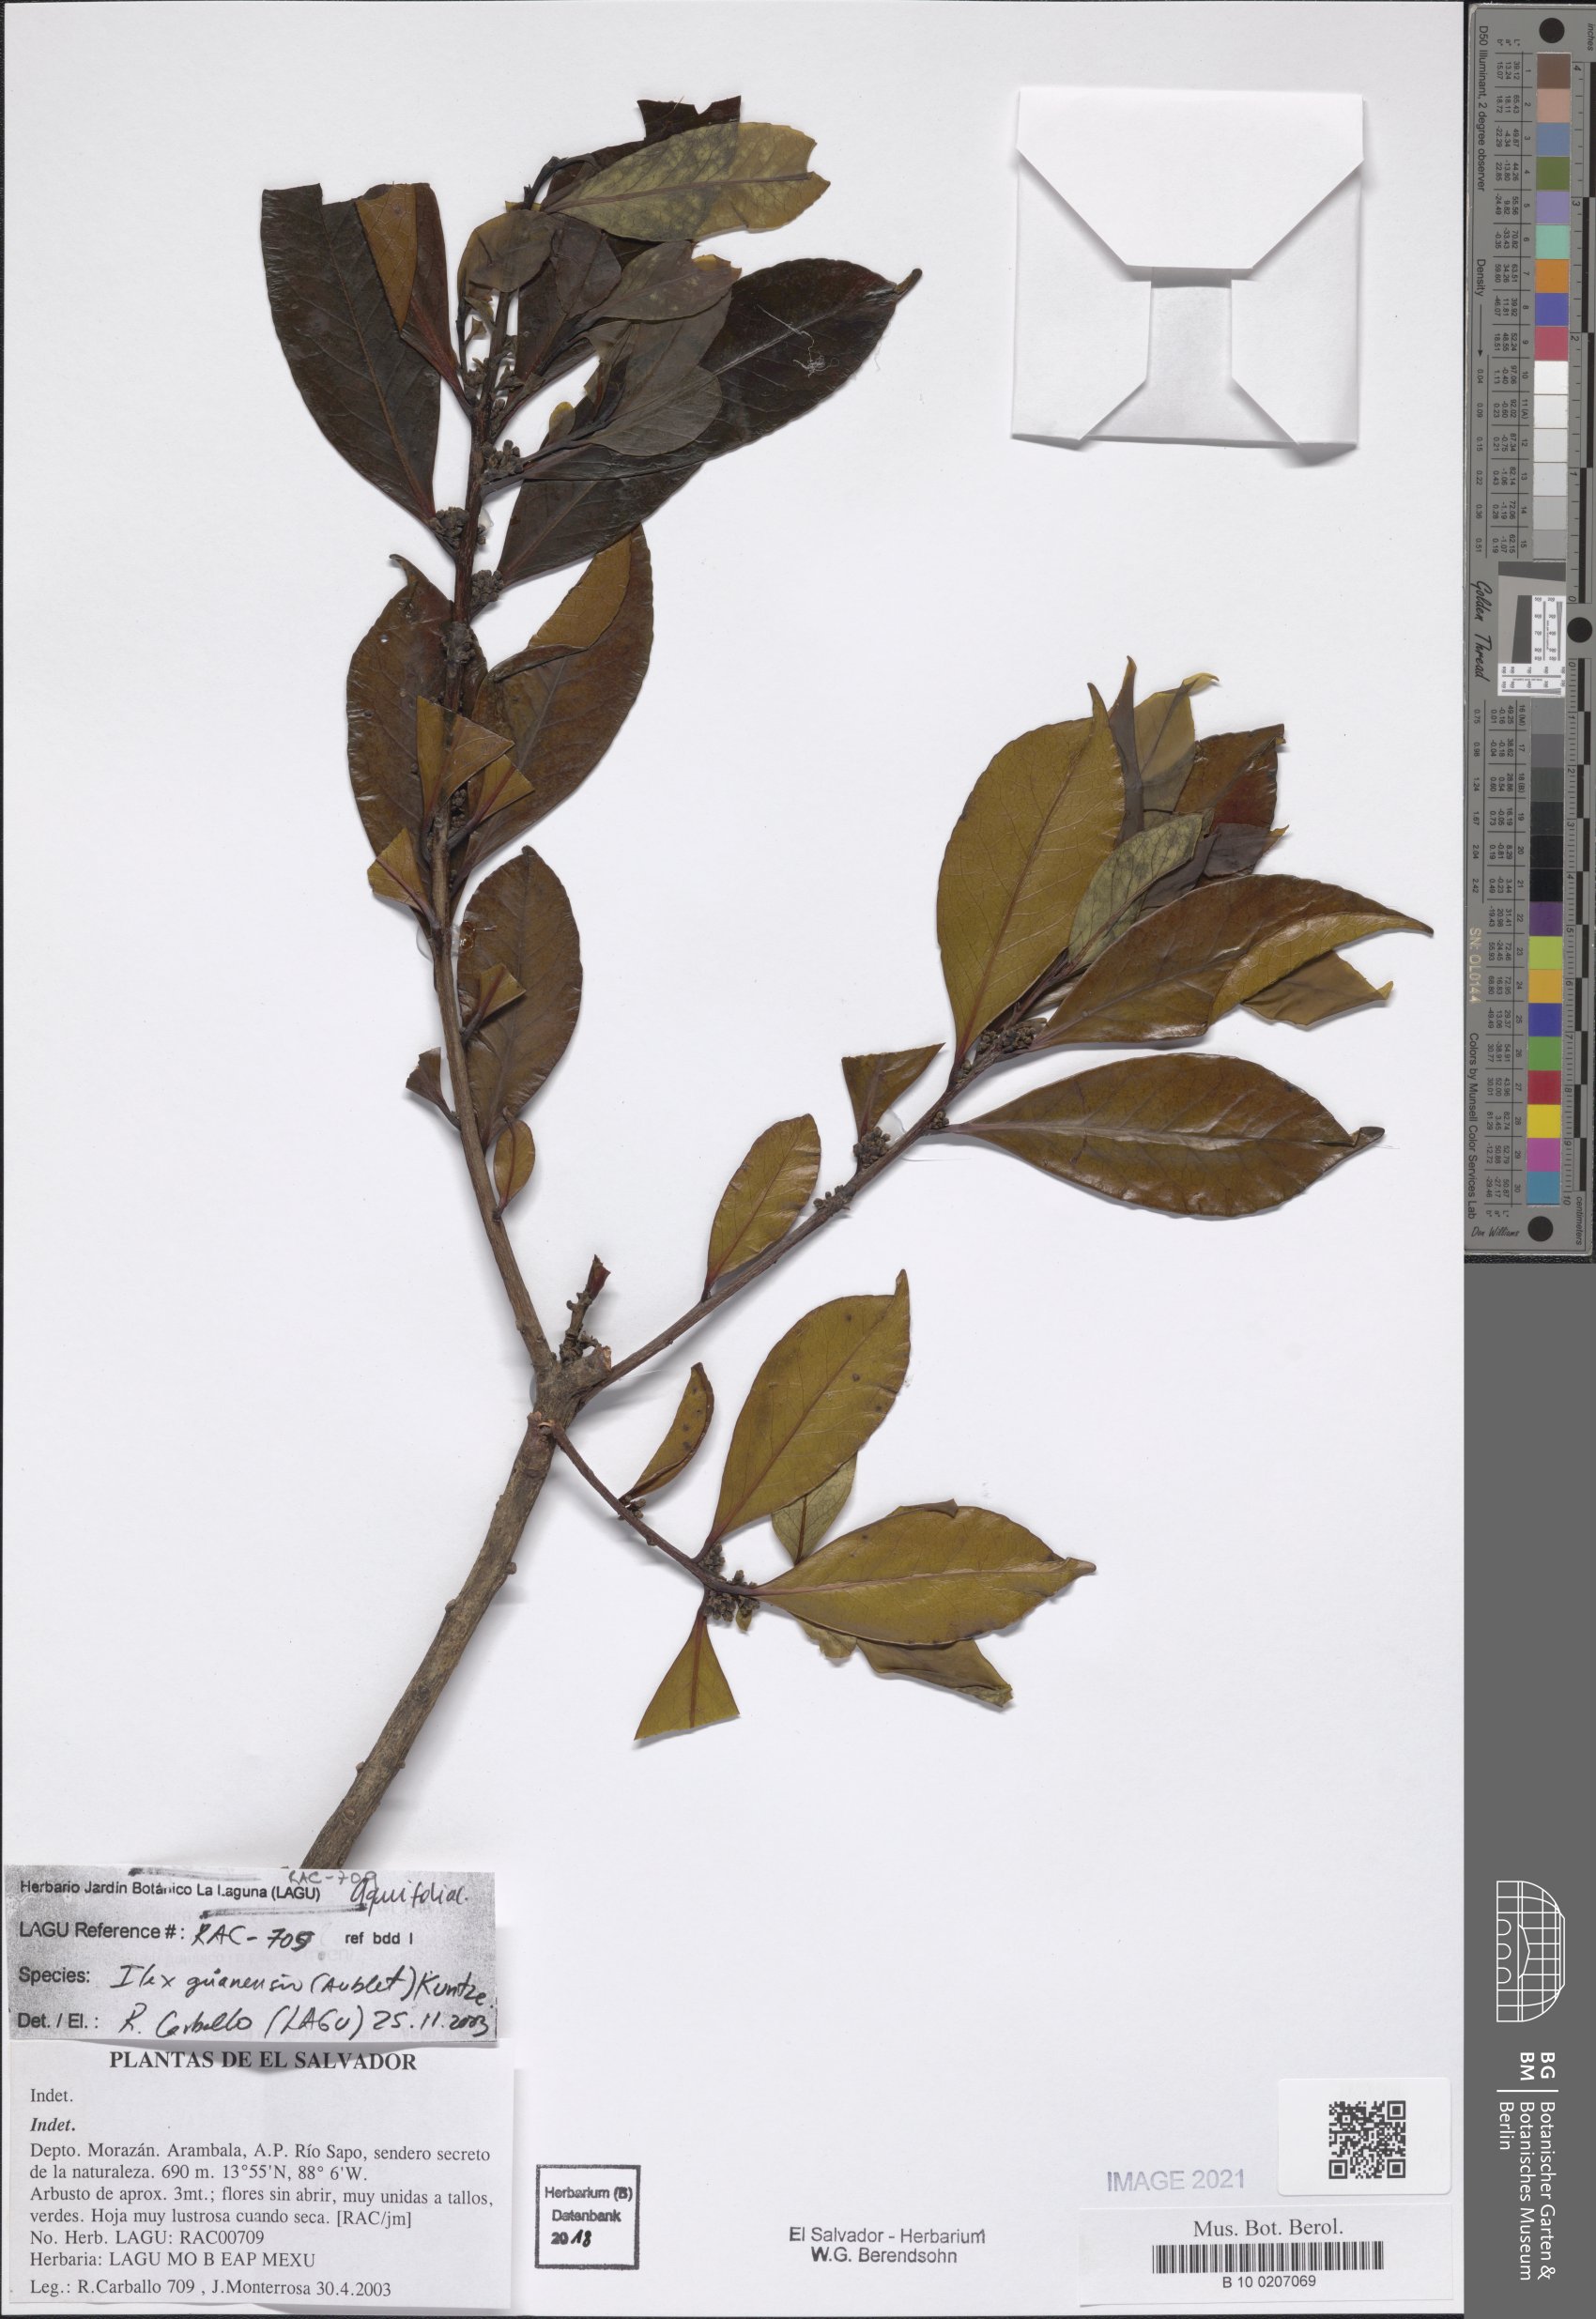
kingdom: Plantae
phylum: Tracheophyta
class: Magnoliopsida
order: Ericales
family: Symplocaceae
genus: Symplocos
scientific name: Symplocos costaricana
